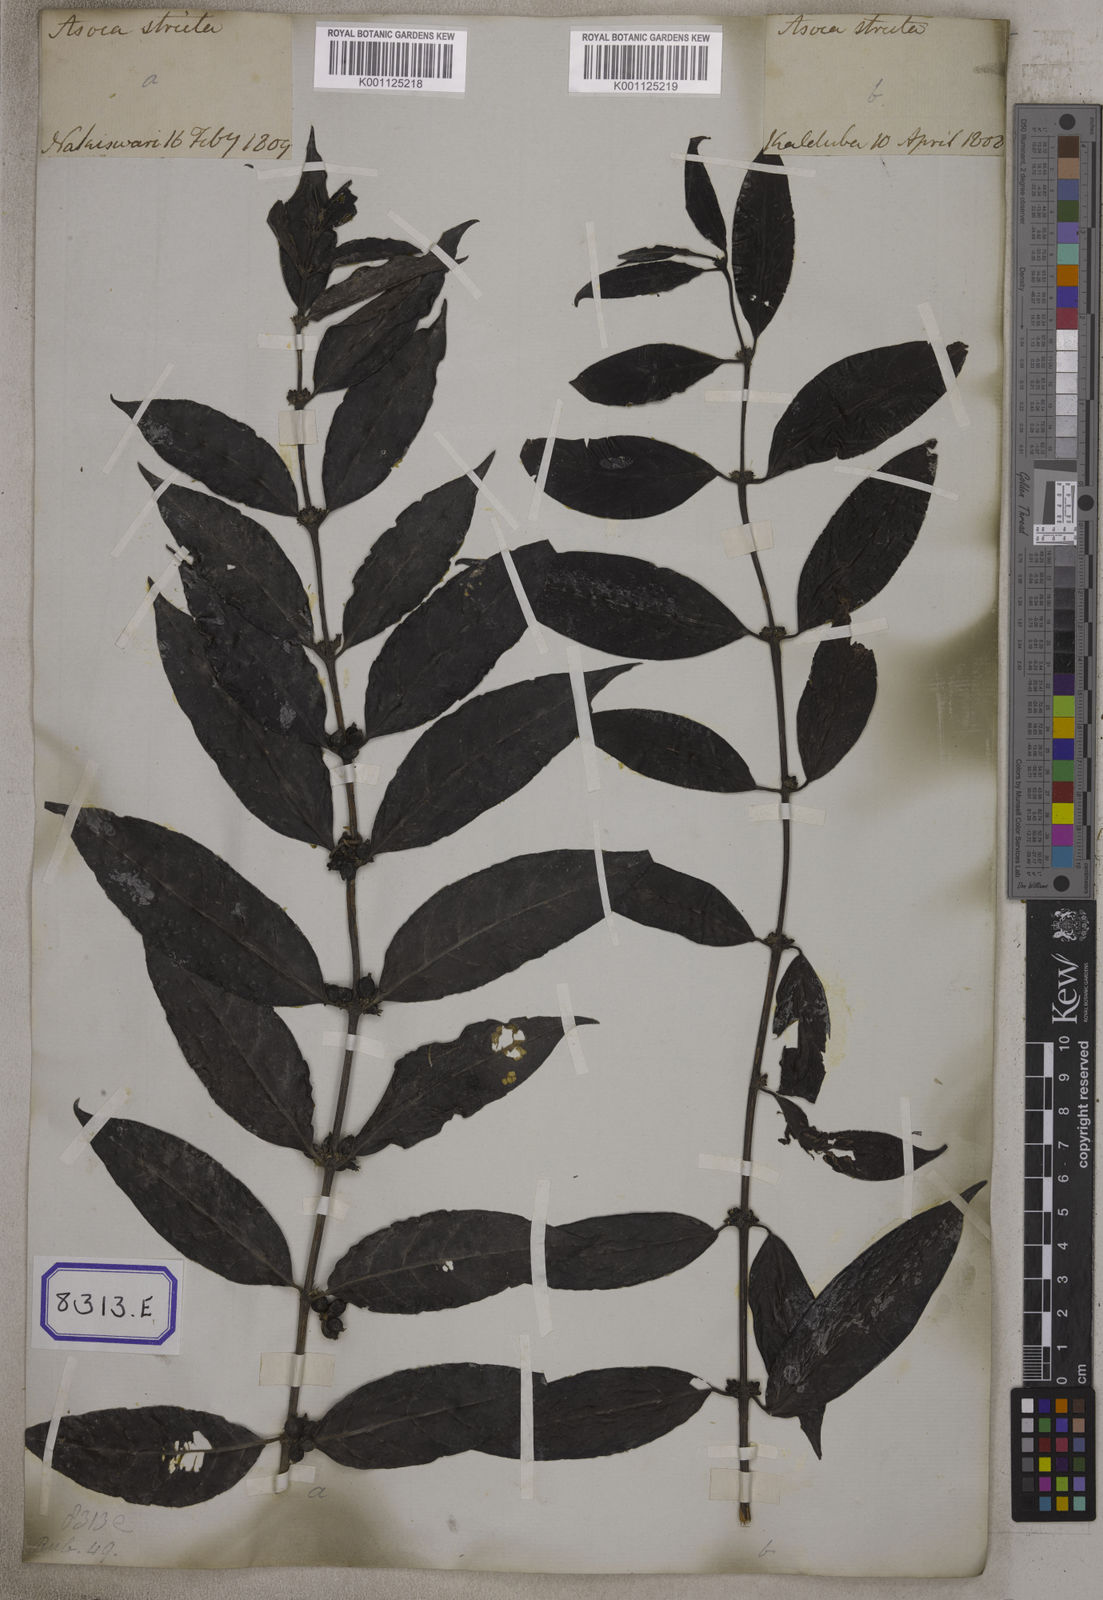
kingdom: Plantae
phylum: Tracheophyta
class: Magnoliopsida
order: Gentianales
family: Rubiaceae
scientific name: Rubiaceae
